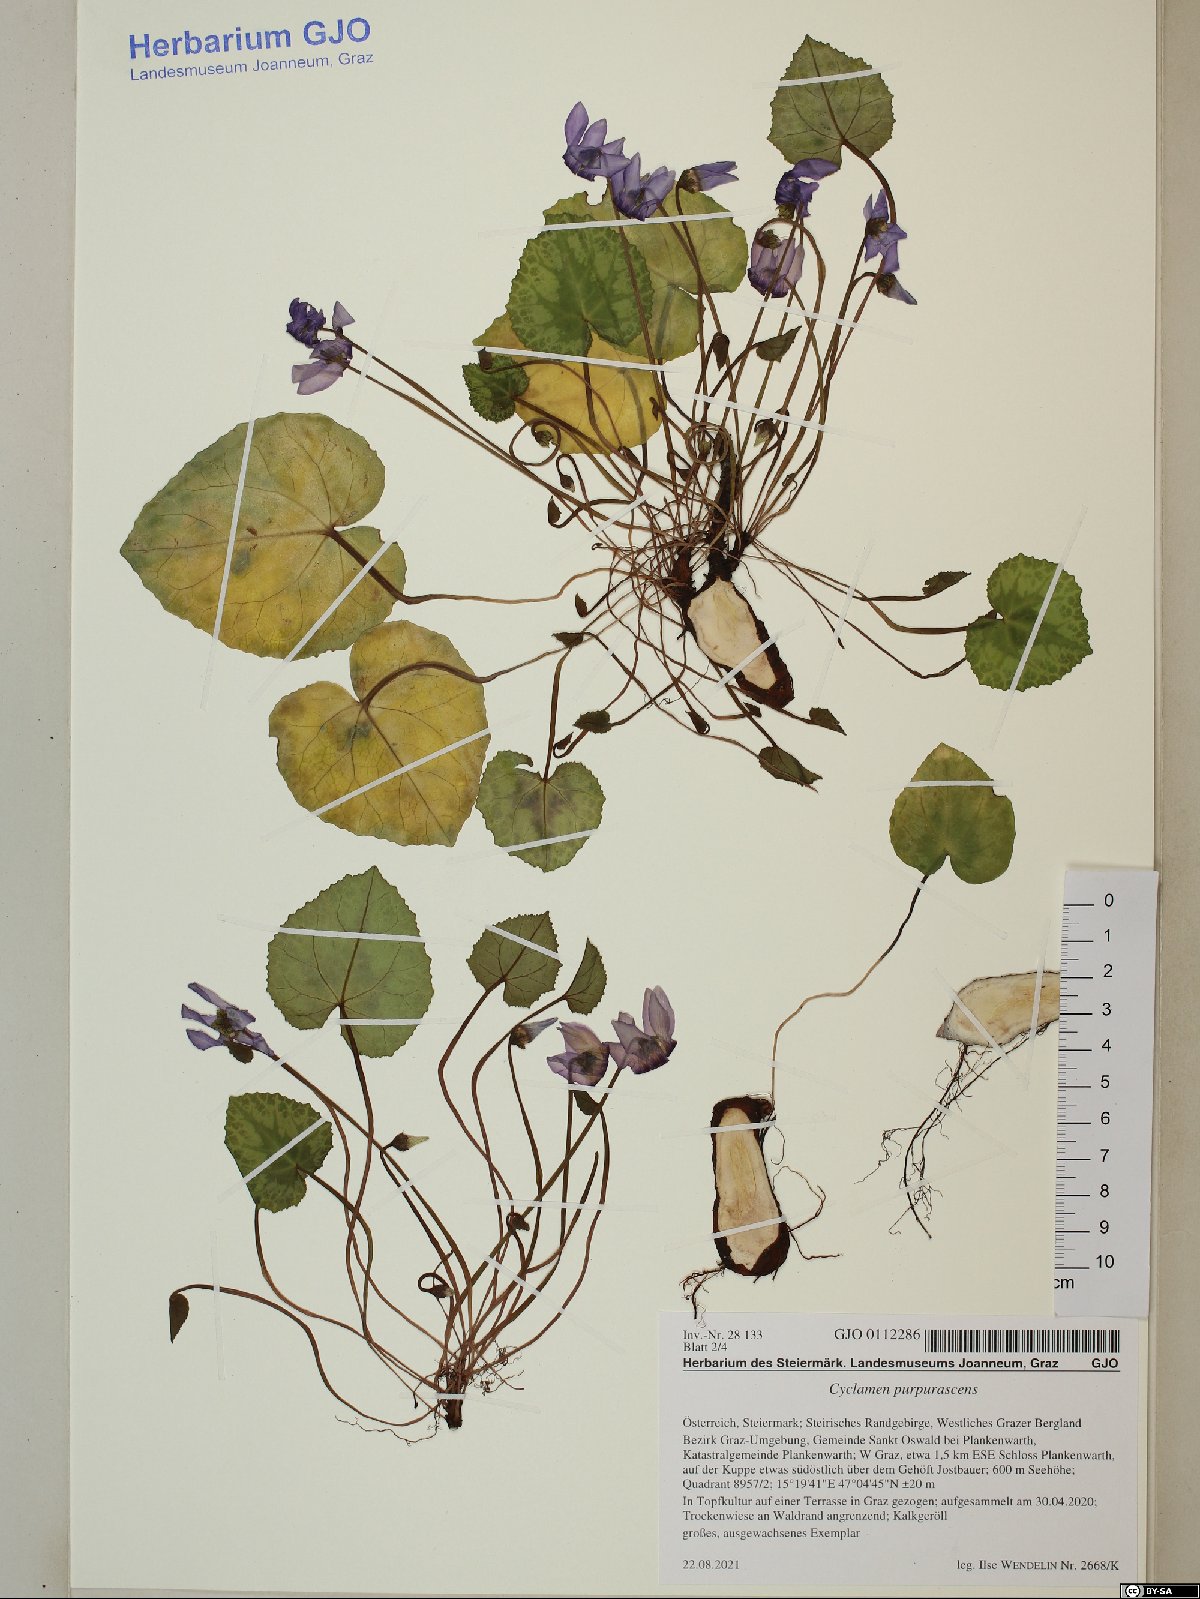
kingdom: Plantae
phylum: Tracheophyta
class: Magnoliopsida
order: Ericales
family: Primulaceae
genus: Cyclamen
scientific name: Cyclamen purpurascens
